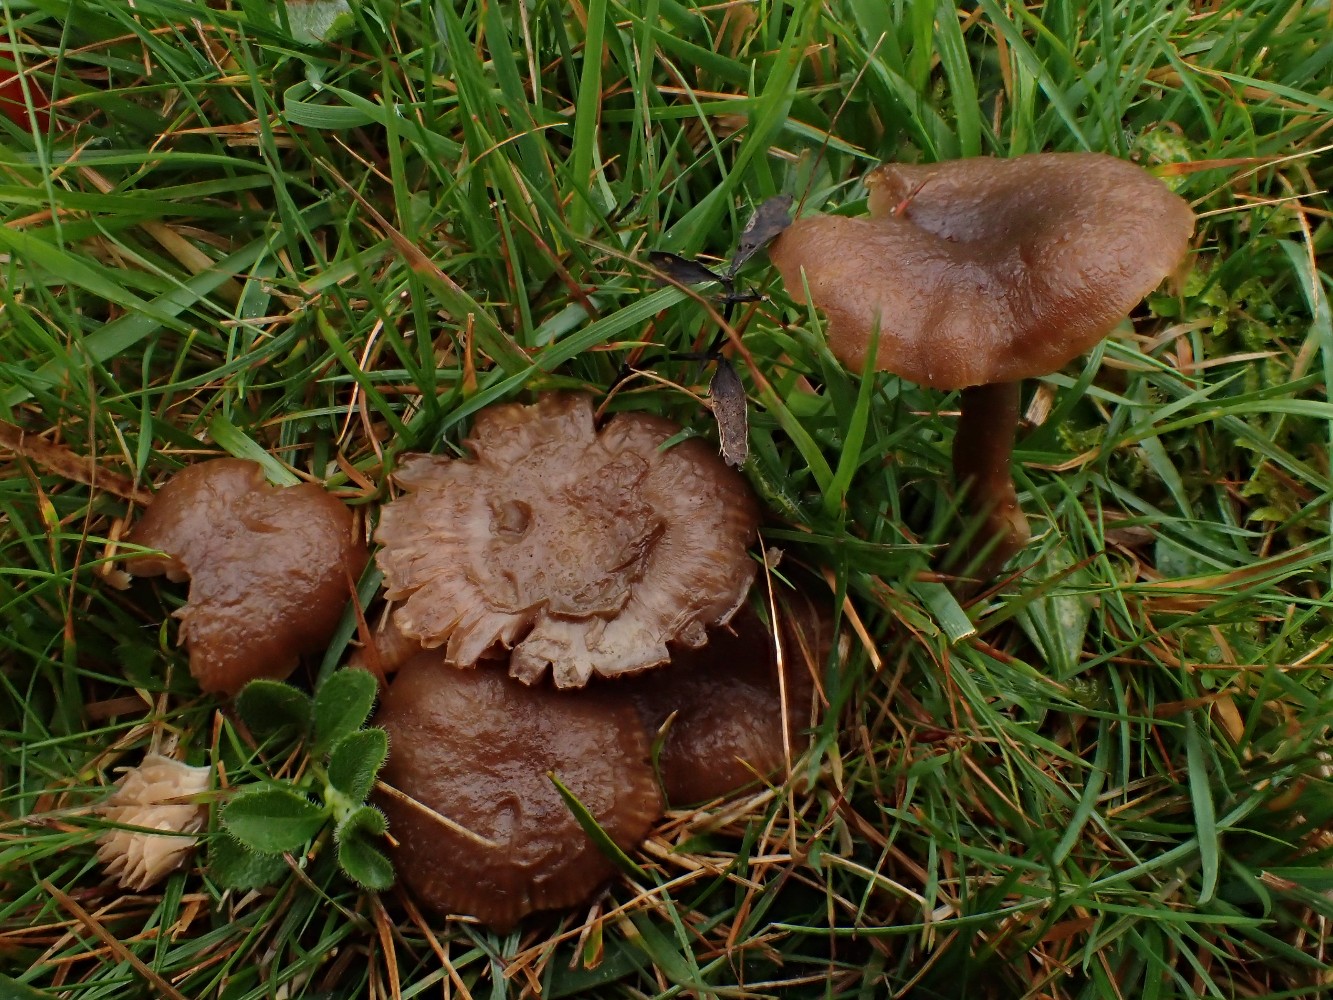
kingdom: Fungi
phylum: Basidiomycota
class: Agaricomycetes
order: Agaricales
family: Clavariaceae
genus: Camarophyllopsis
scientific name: Camarophyllopsis schulzeri
